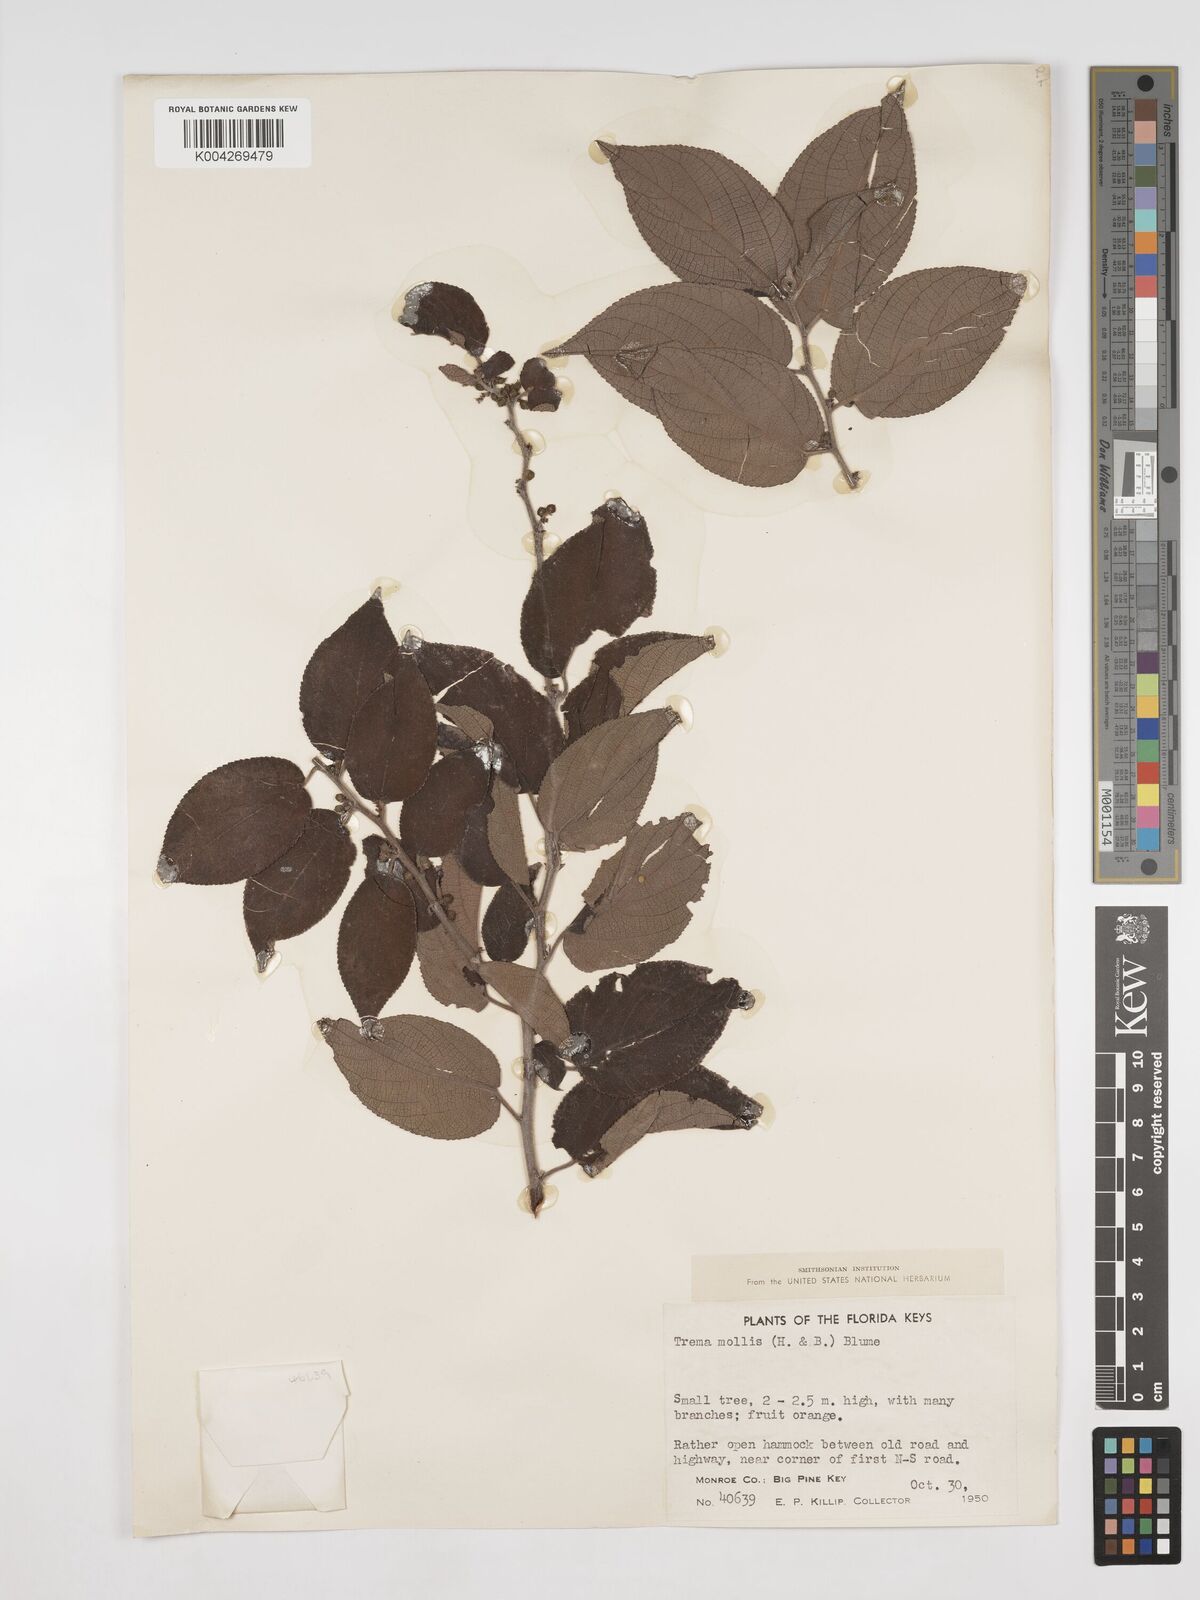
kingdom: Plantae
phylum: Tracheophyta
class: Magnoliopsida
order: Rosales
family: Cannabaceae
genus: Trema
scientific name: Trema micranthum
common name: Jamaican nettletree
